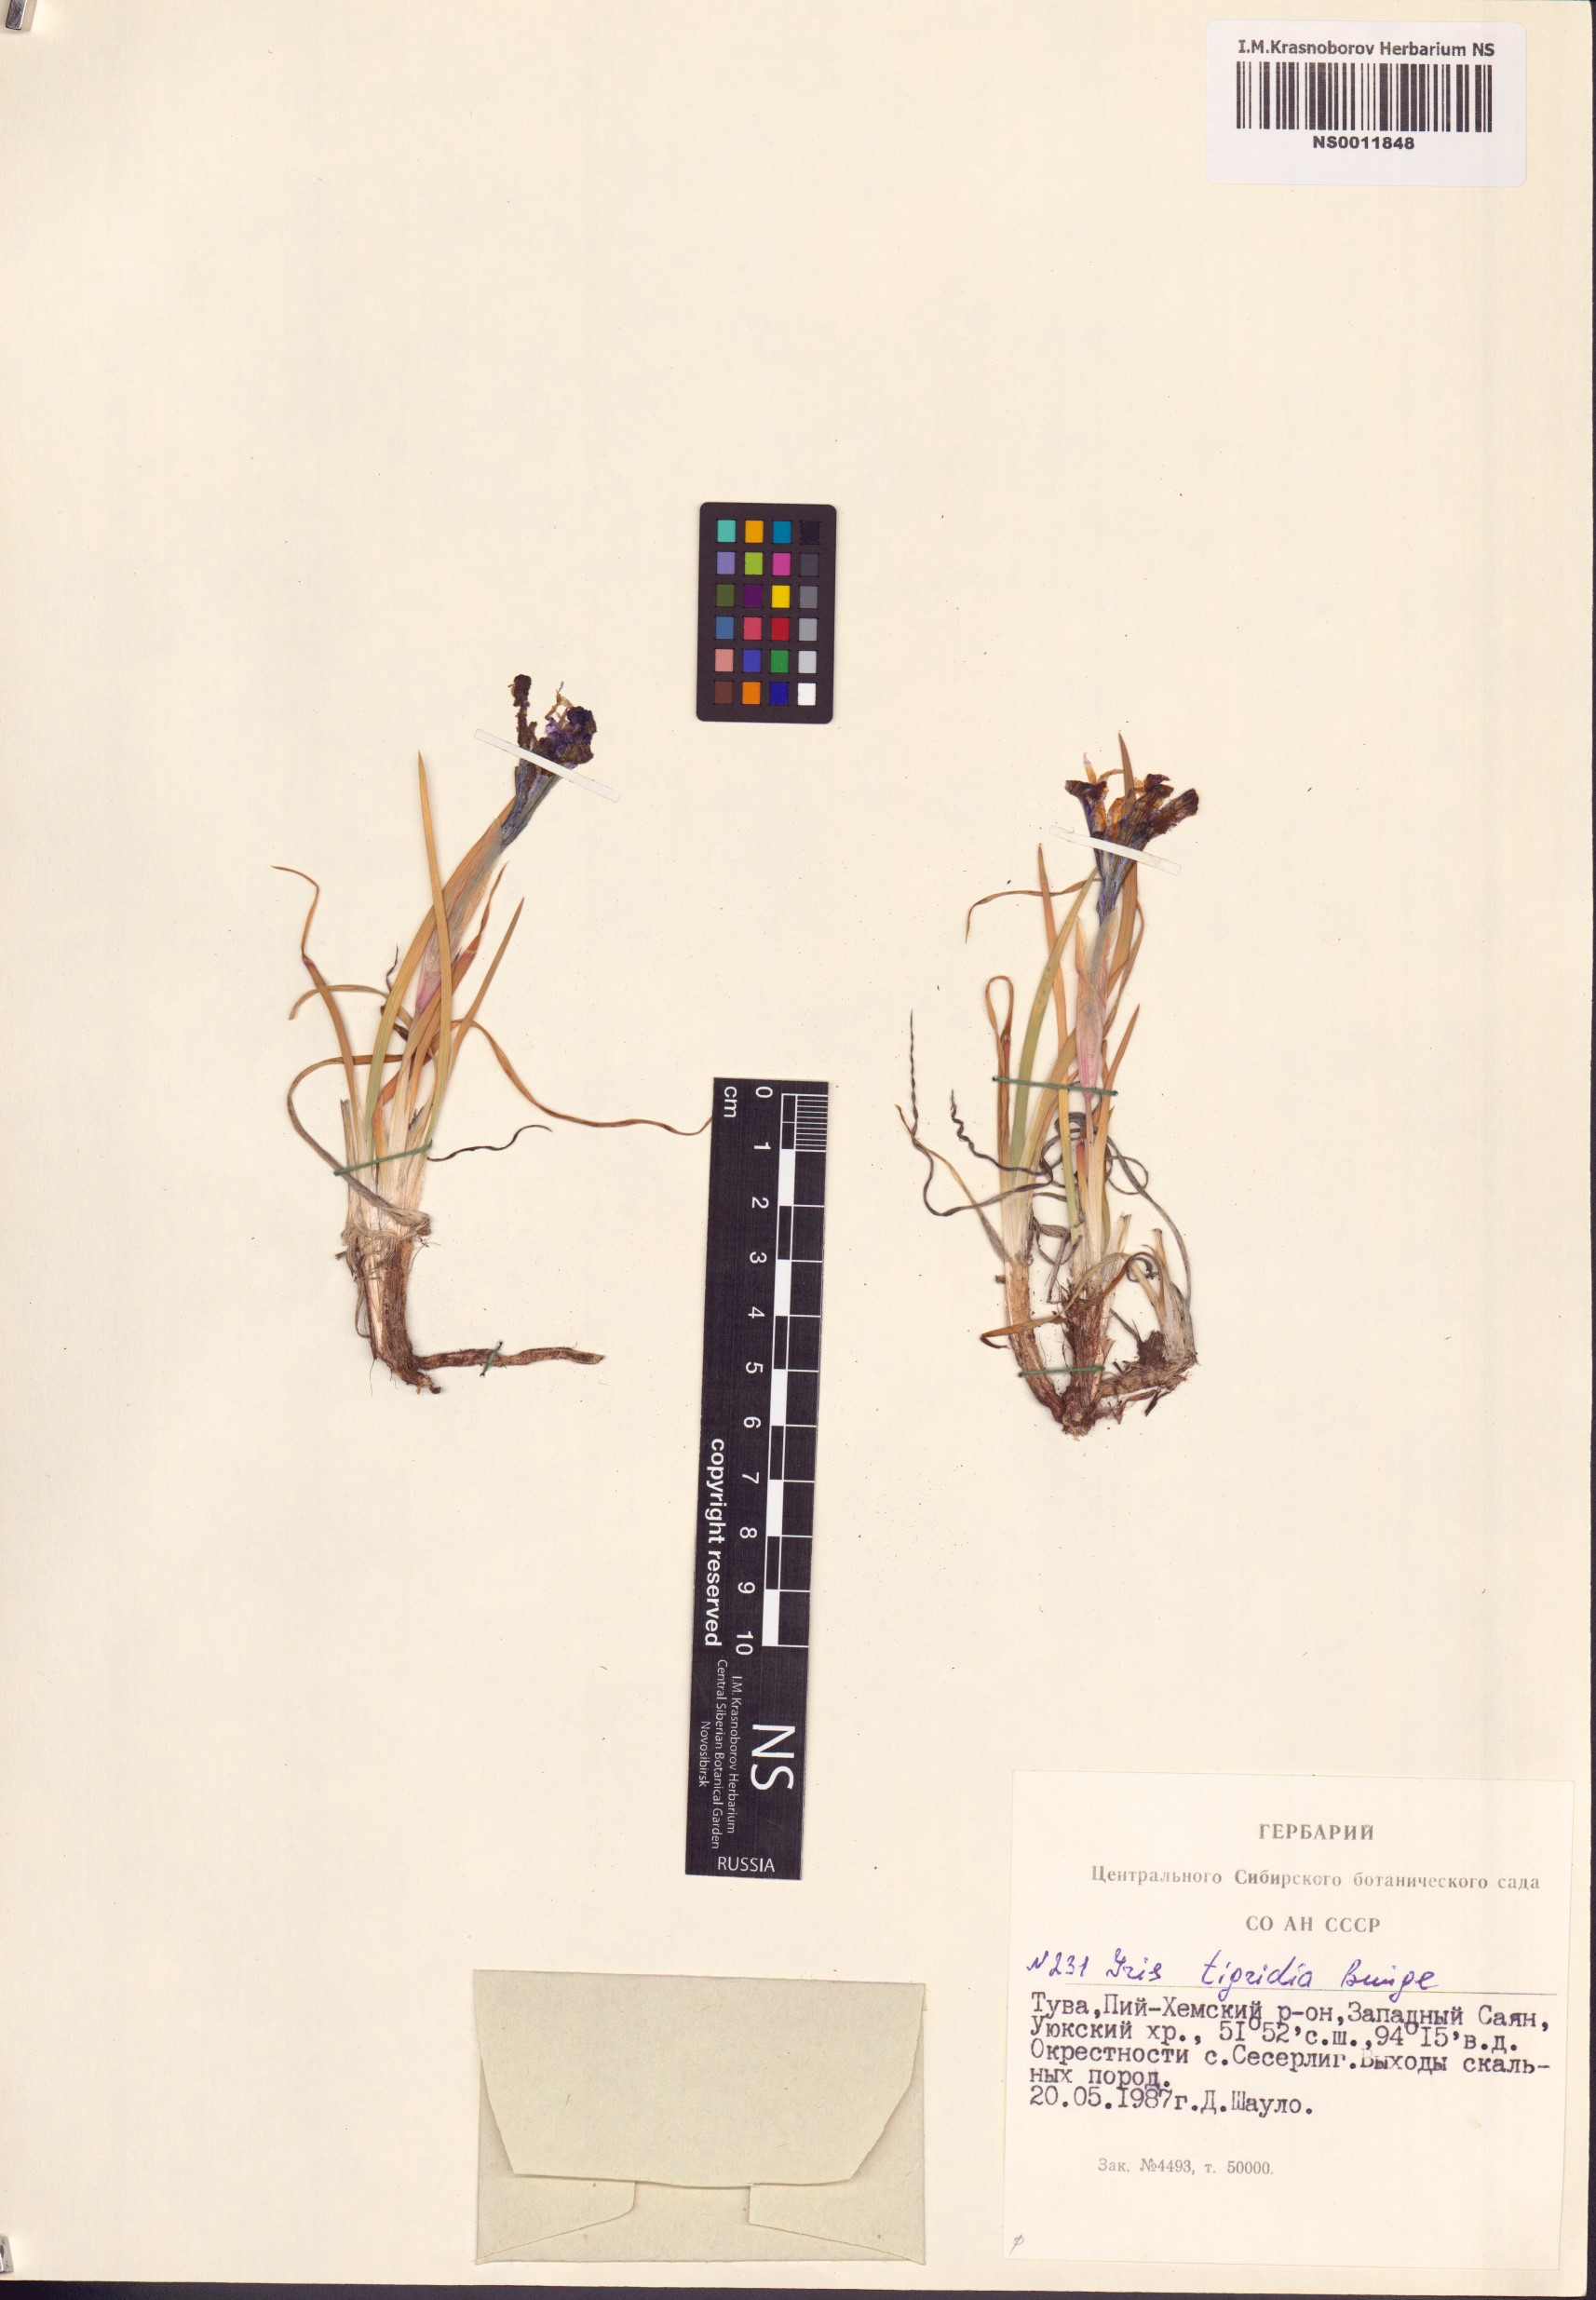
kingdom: Plantae
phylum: Tracheophyta
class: Liliopsida
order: Asparagales
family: Iridaceae
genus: Iris
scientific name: Iris tigridia
